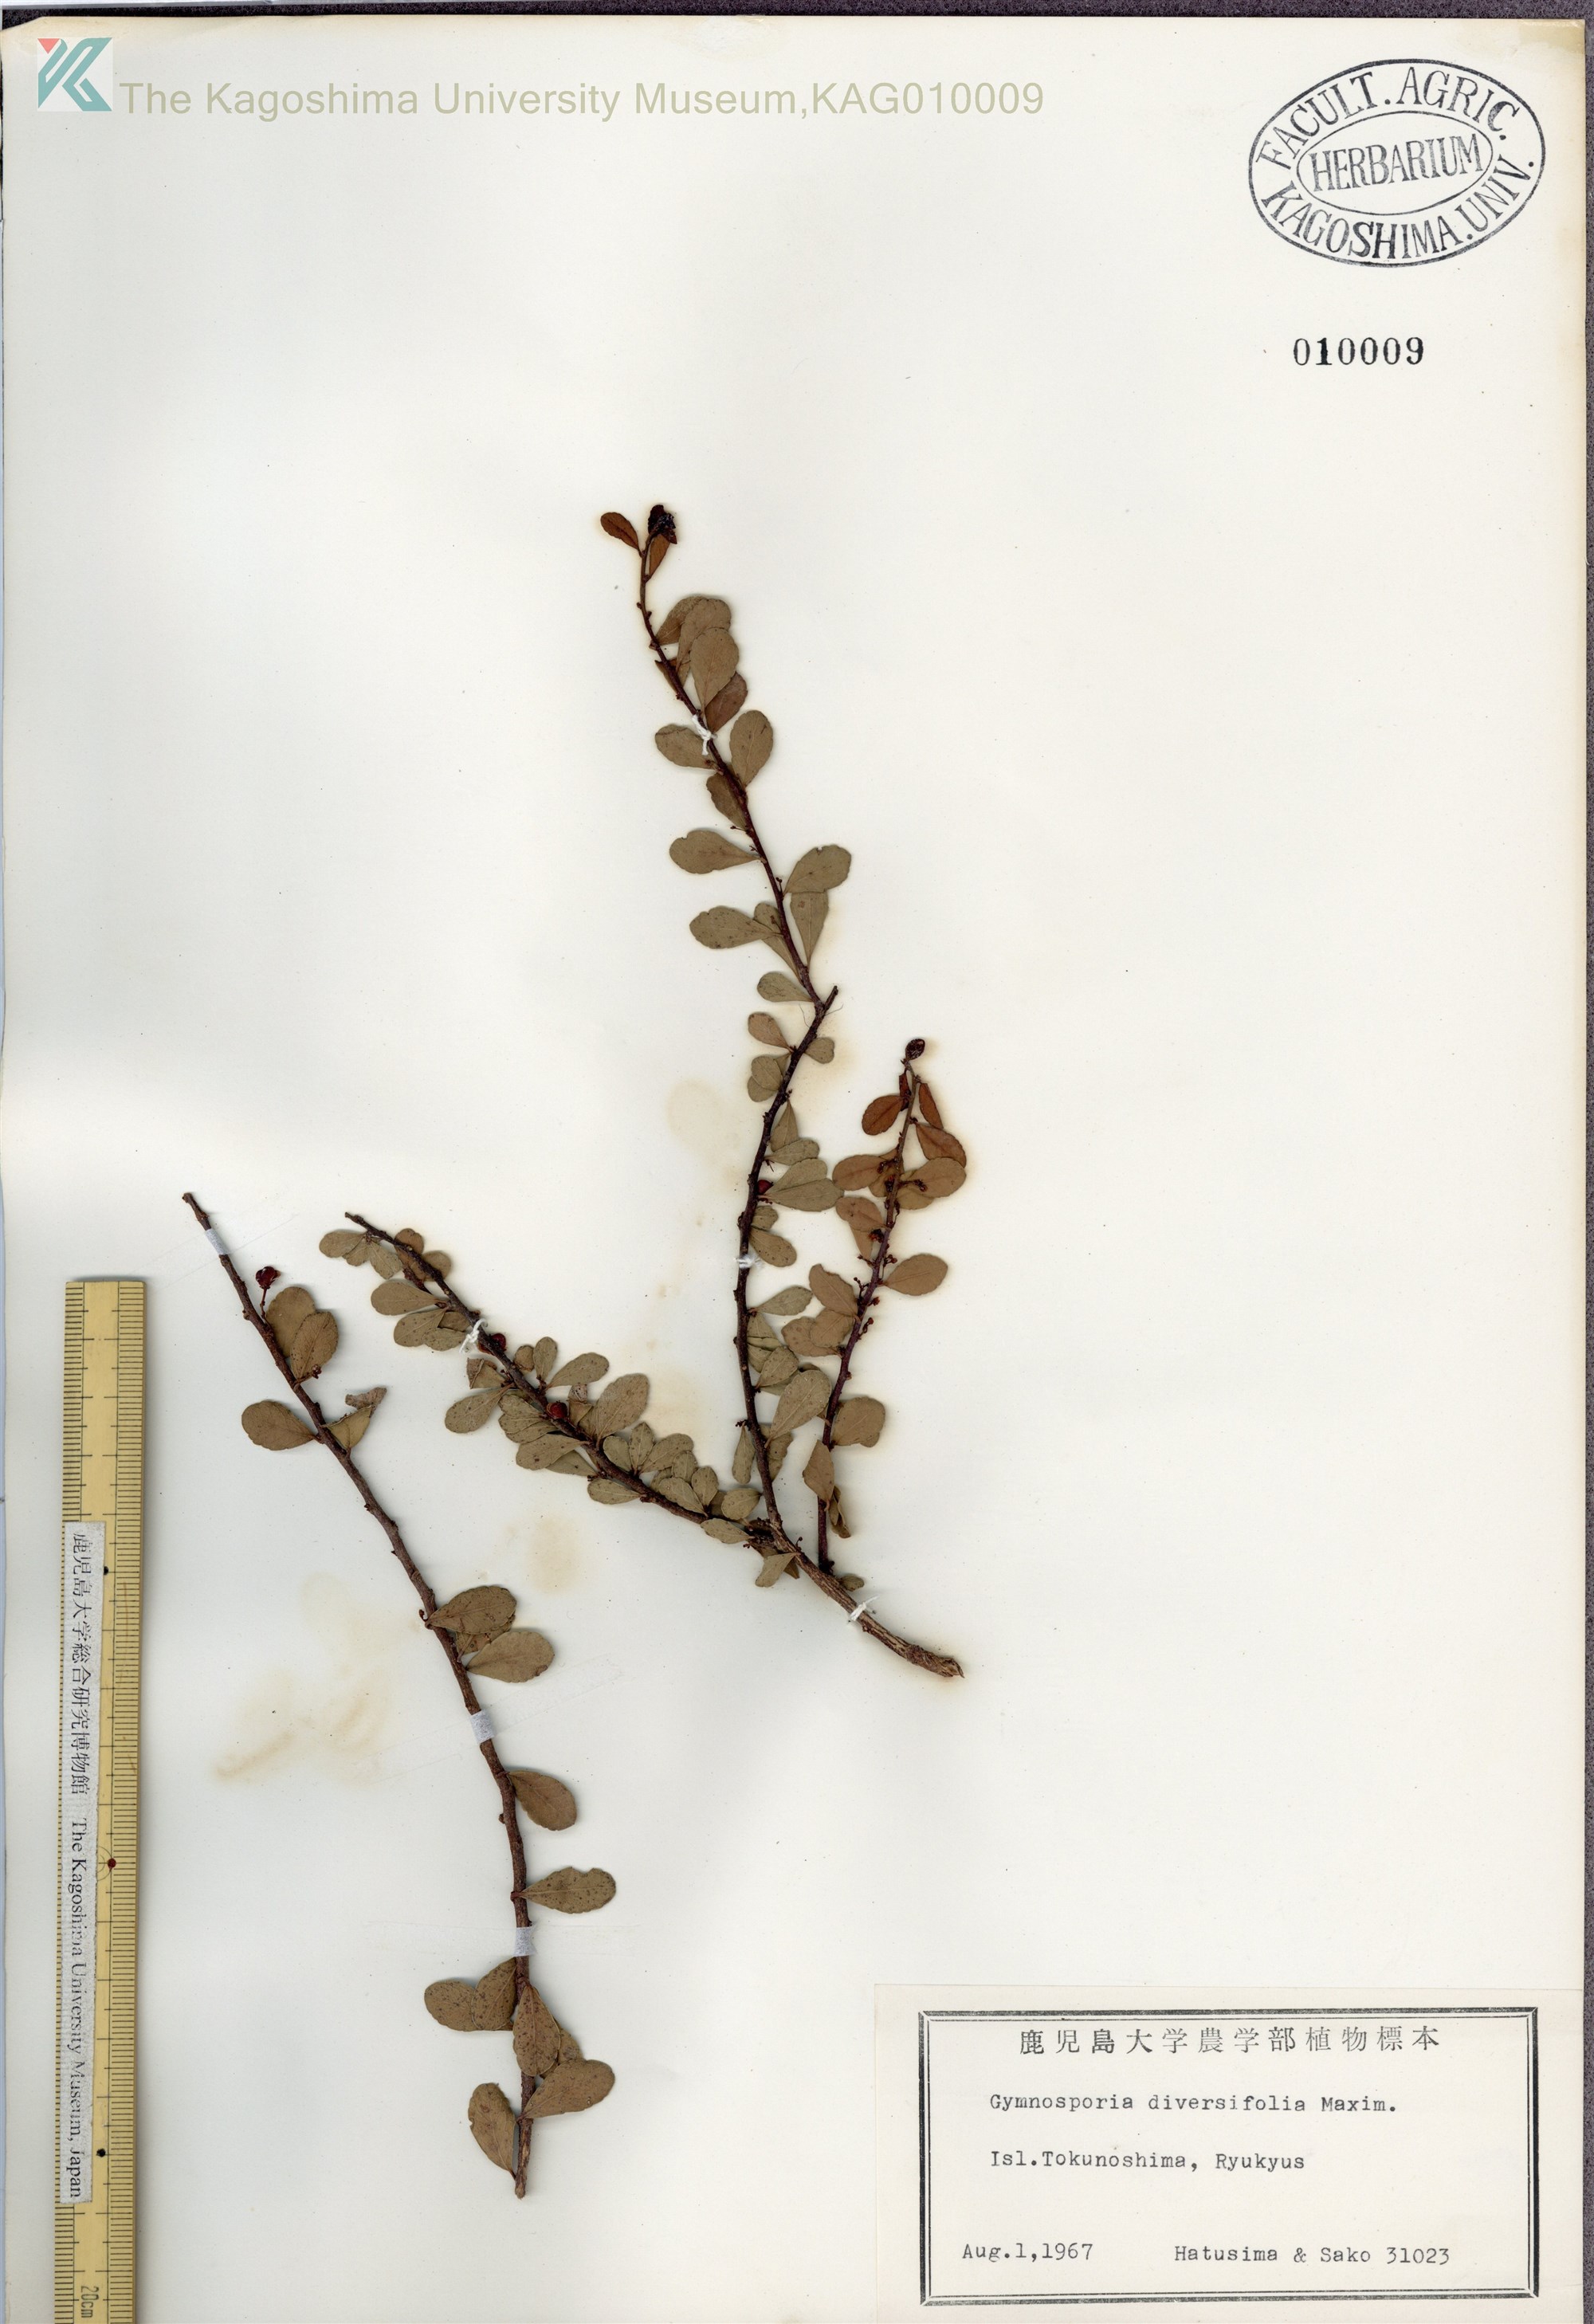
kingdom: Plantae
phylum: Tracheophyta
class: Magnoliopsida
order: Celastrales
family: Celastraceae
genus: Gymnosporia
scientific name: Gymnosporia diversifolia
